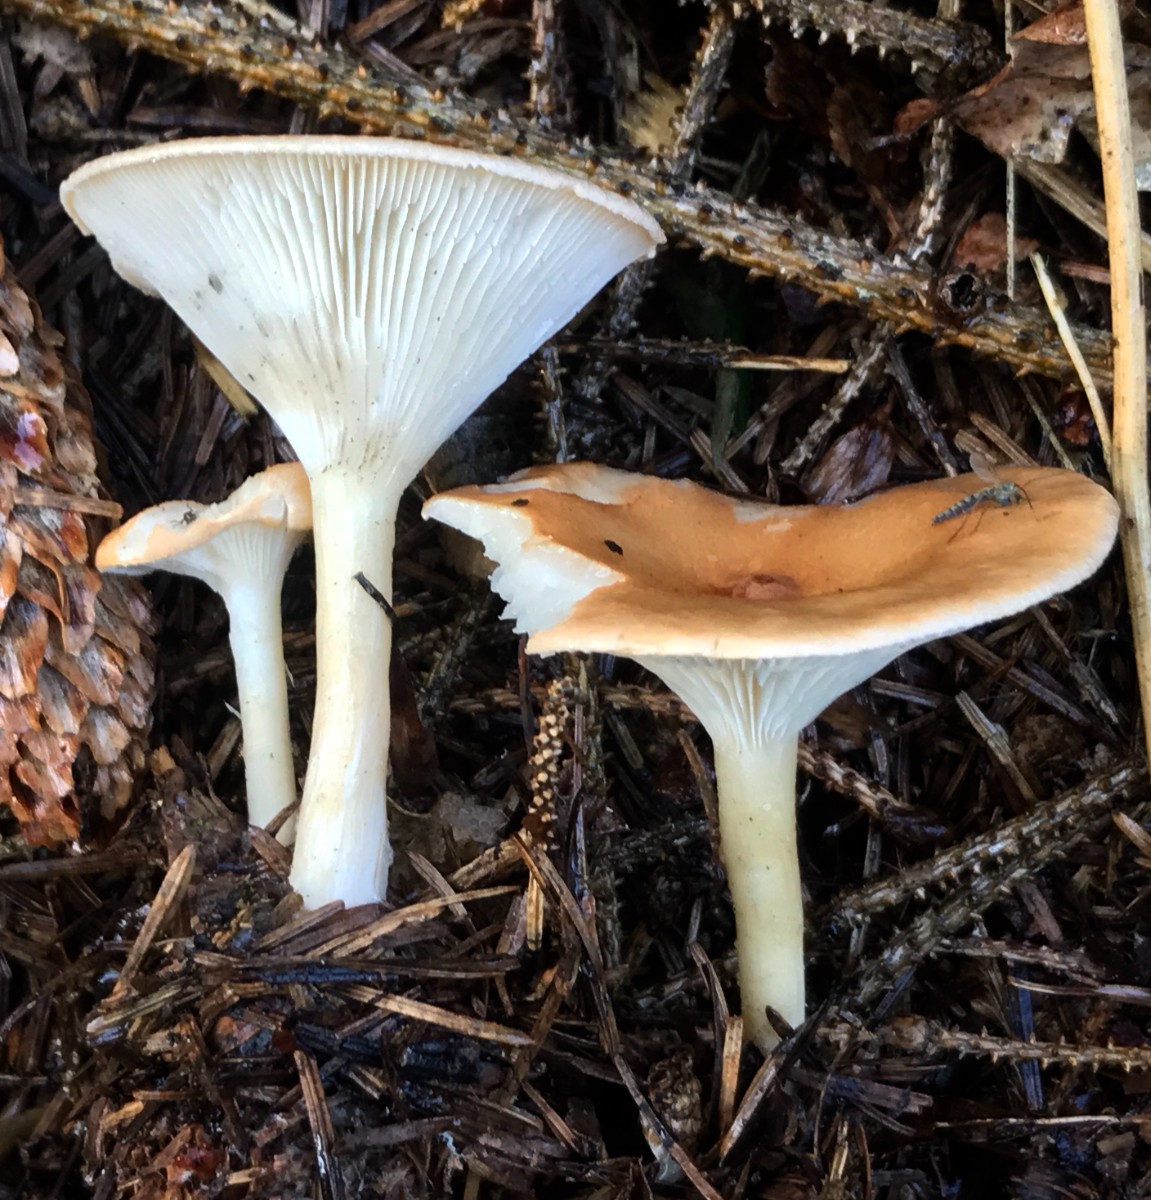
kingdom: Fungi
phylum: Basidiomycota
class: Agaricomycetes
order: Agaricales
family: Tricholomataceae
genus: Infundibulicybe
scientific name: Infundibulicybe gibba
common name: almindelig tragthat
